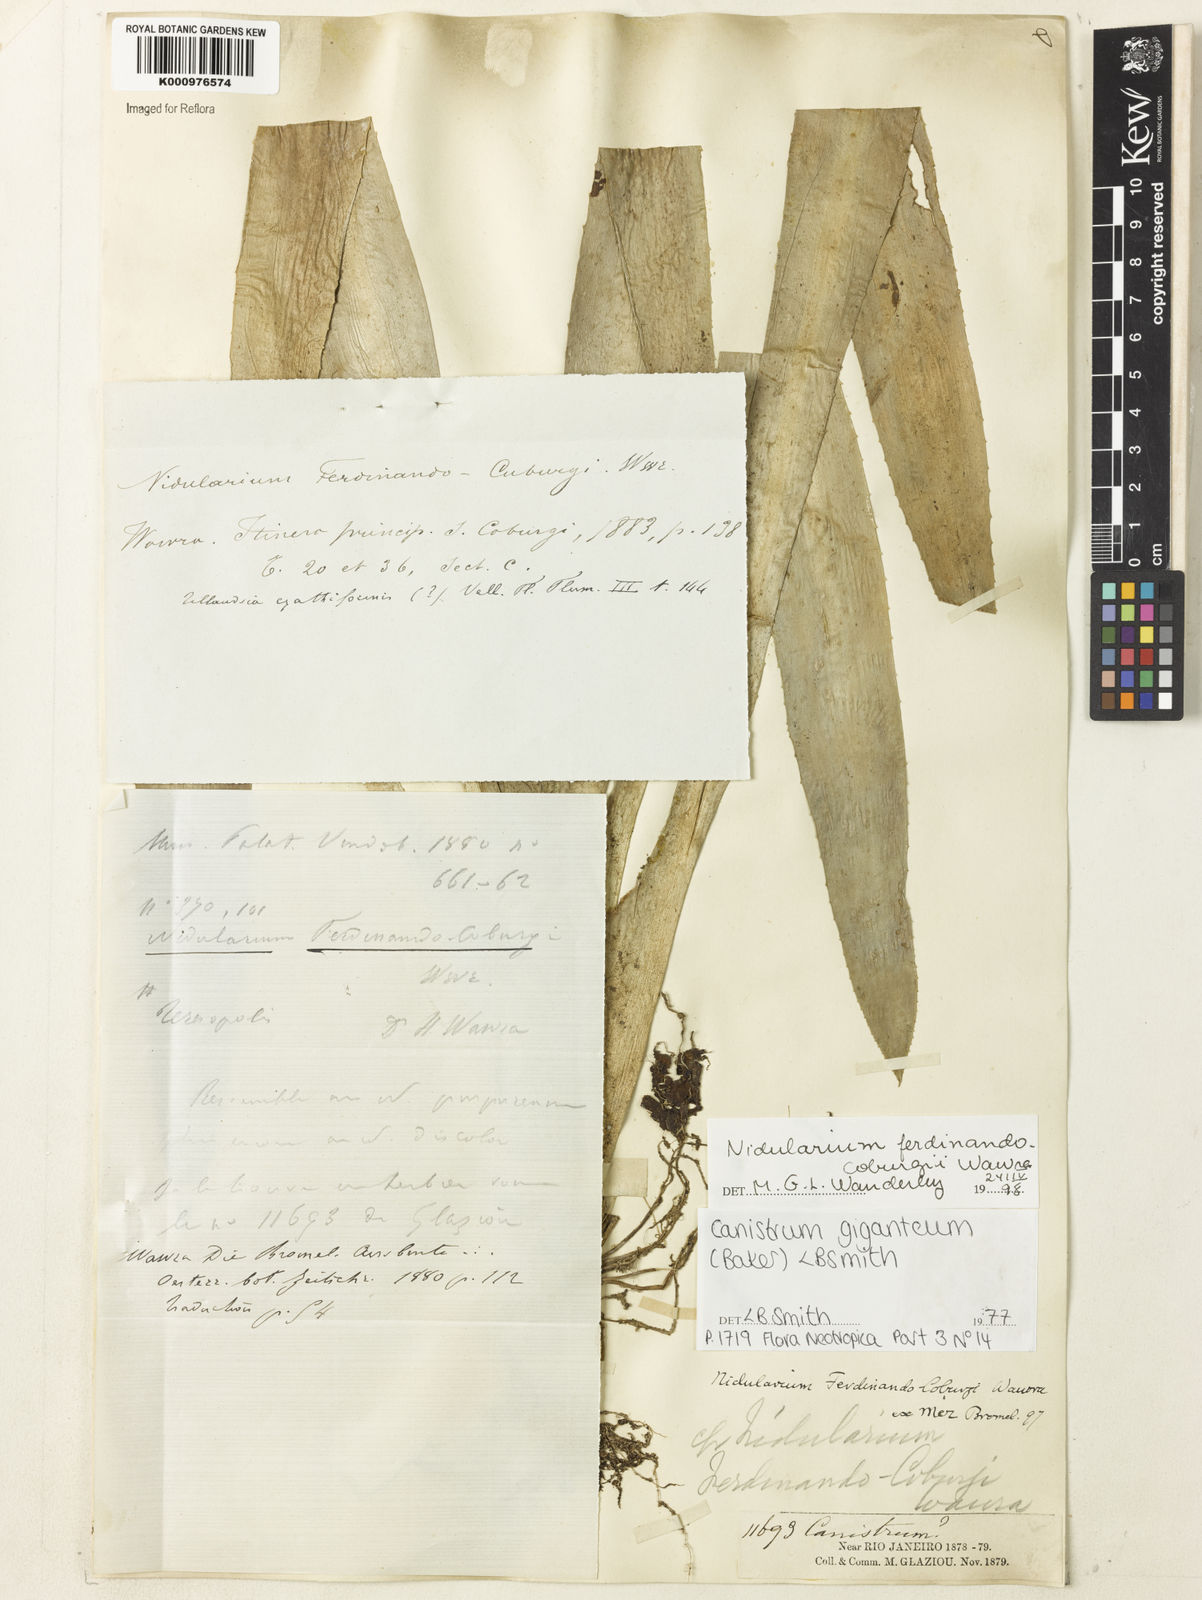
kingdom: Plantae
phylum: Tracheophyta
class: Liliopsida
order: Poales
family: Bromeliaceae
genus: Wittrockia
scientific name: Wittrockia gigantea
